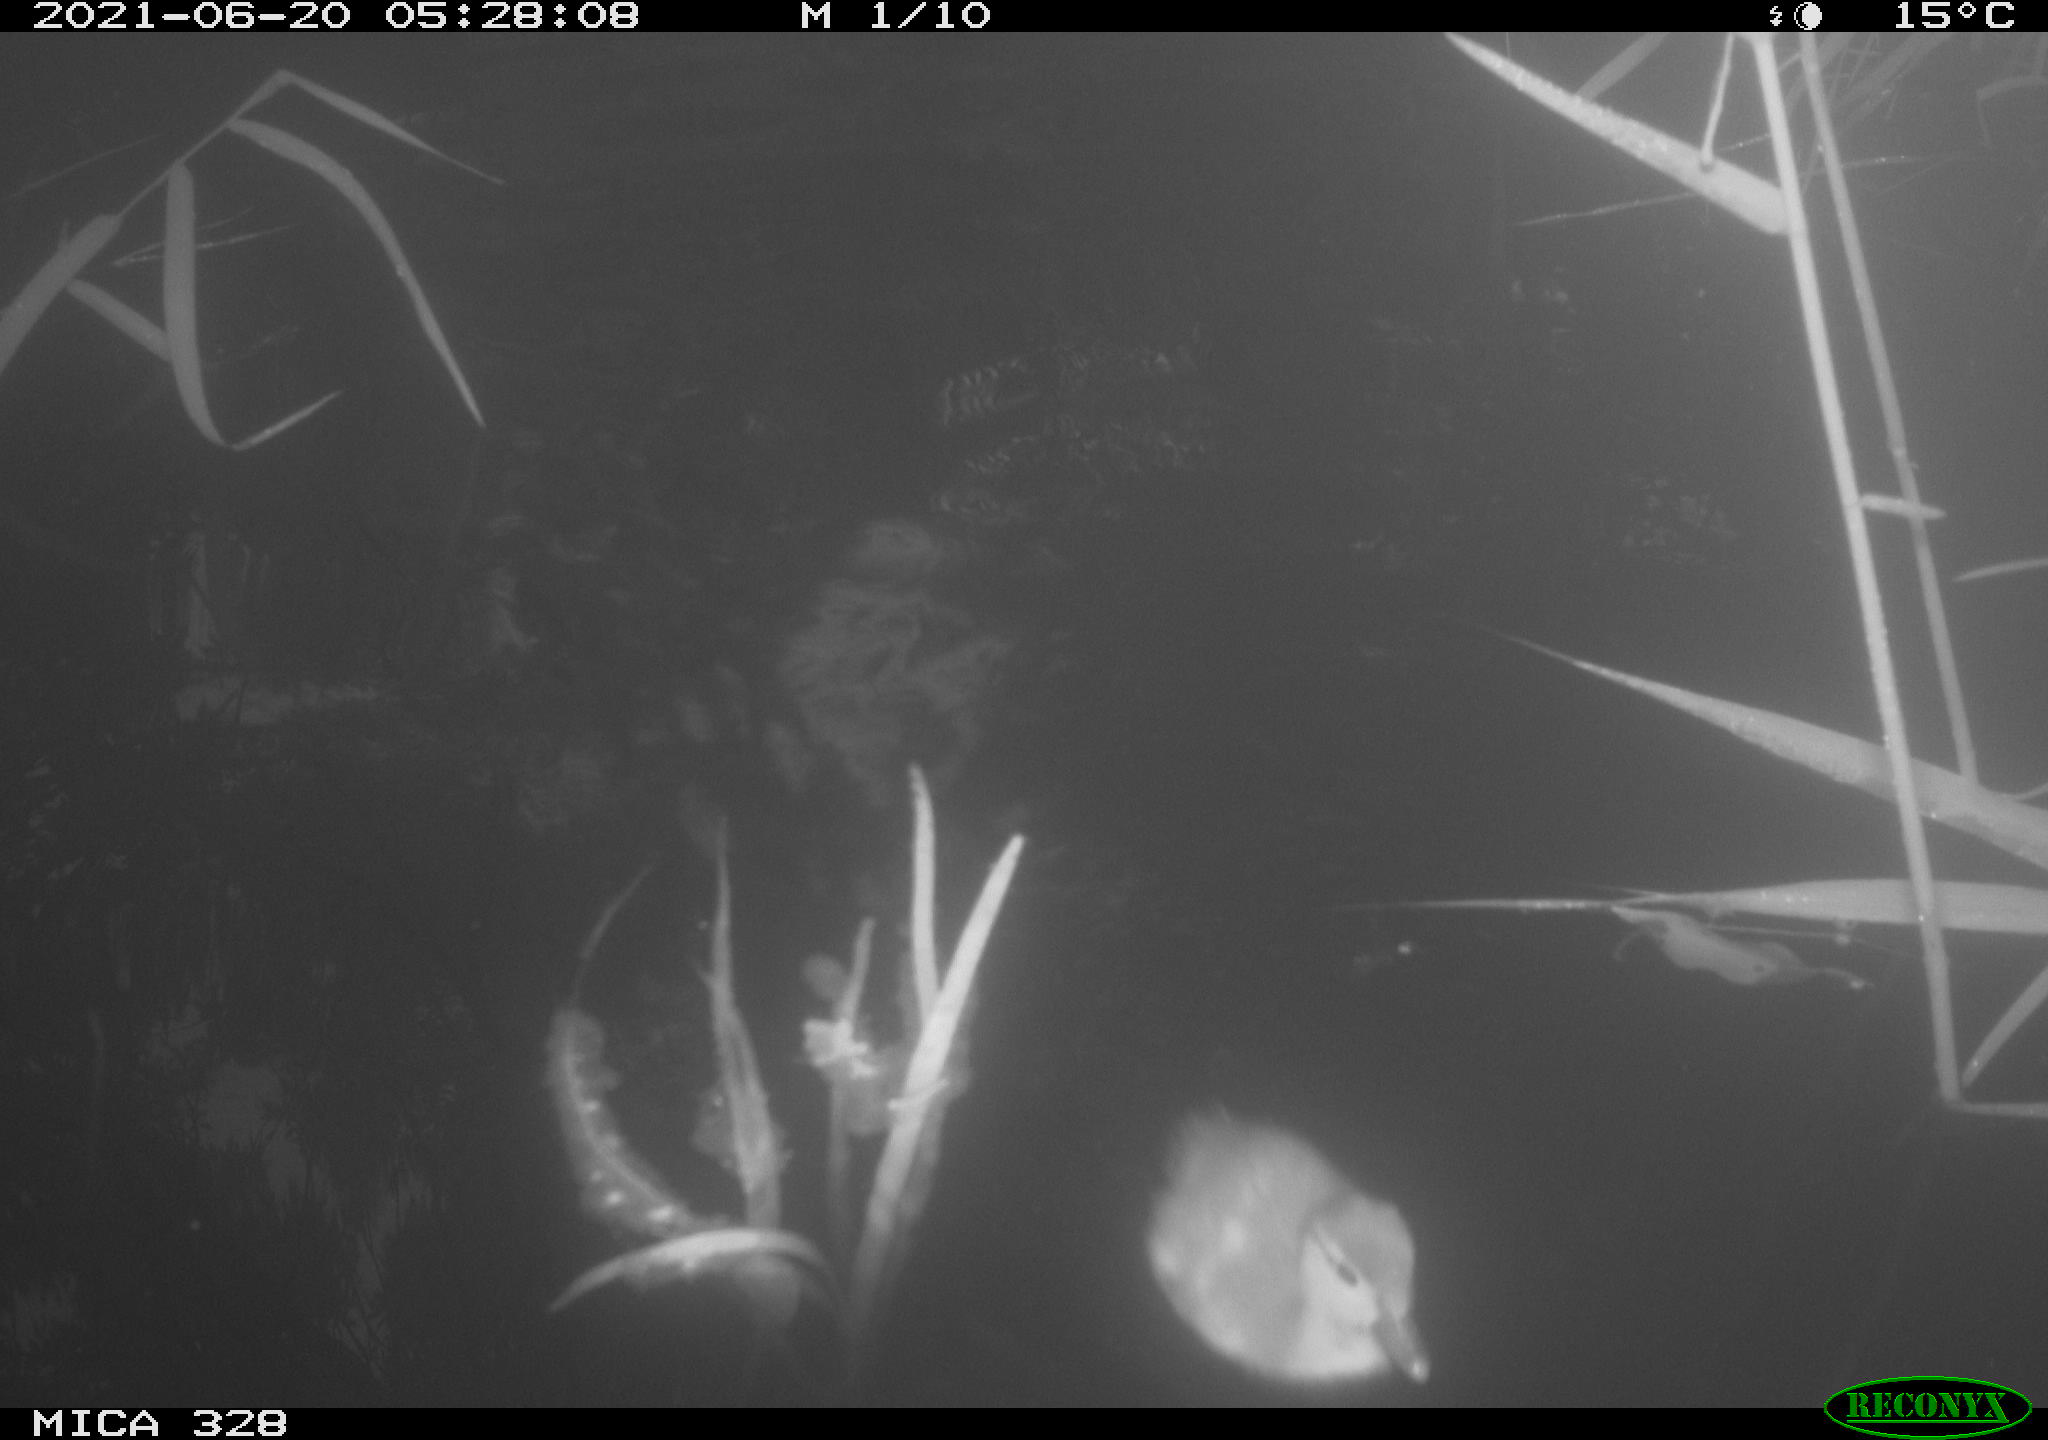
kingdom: Animalia
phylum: Chordata
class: Aves
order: Anseriformes
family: Anatidae
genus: Aix
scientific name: Aix galericulata
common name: Mandarin duck
